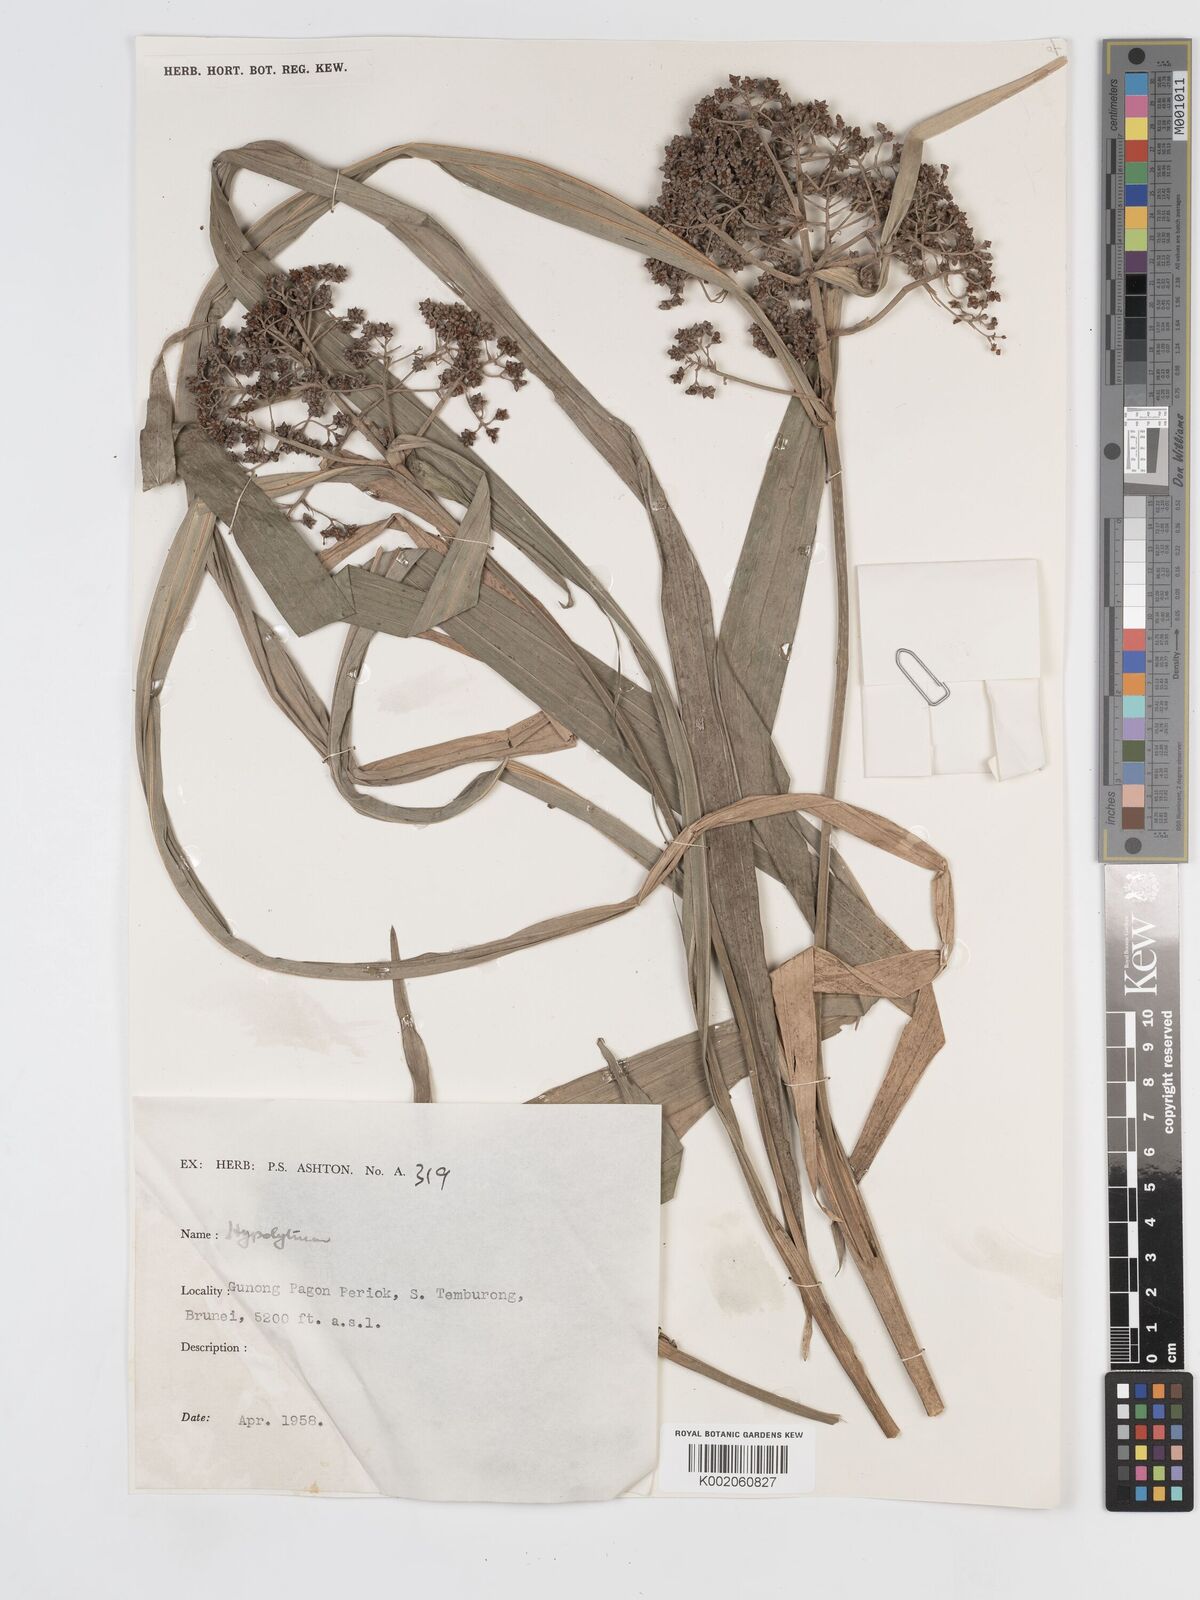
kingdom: Plantae
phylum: Tracheophyta
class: Liliopsida
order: Poales
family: Cyperaceae
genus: Hypolytrum
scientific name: Hypolytrum
